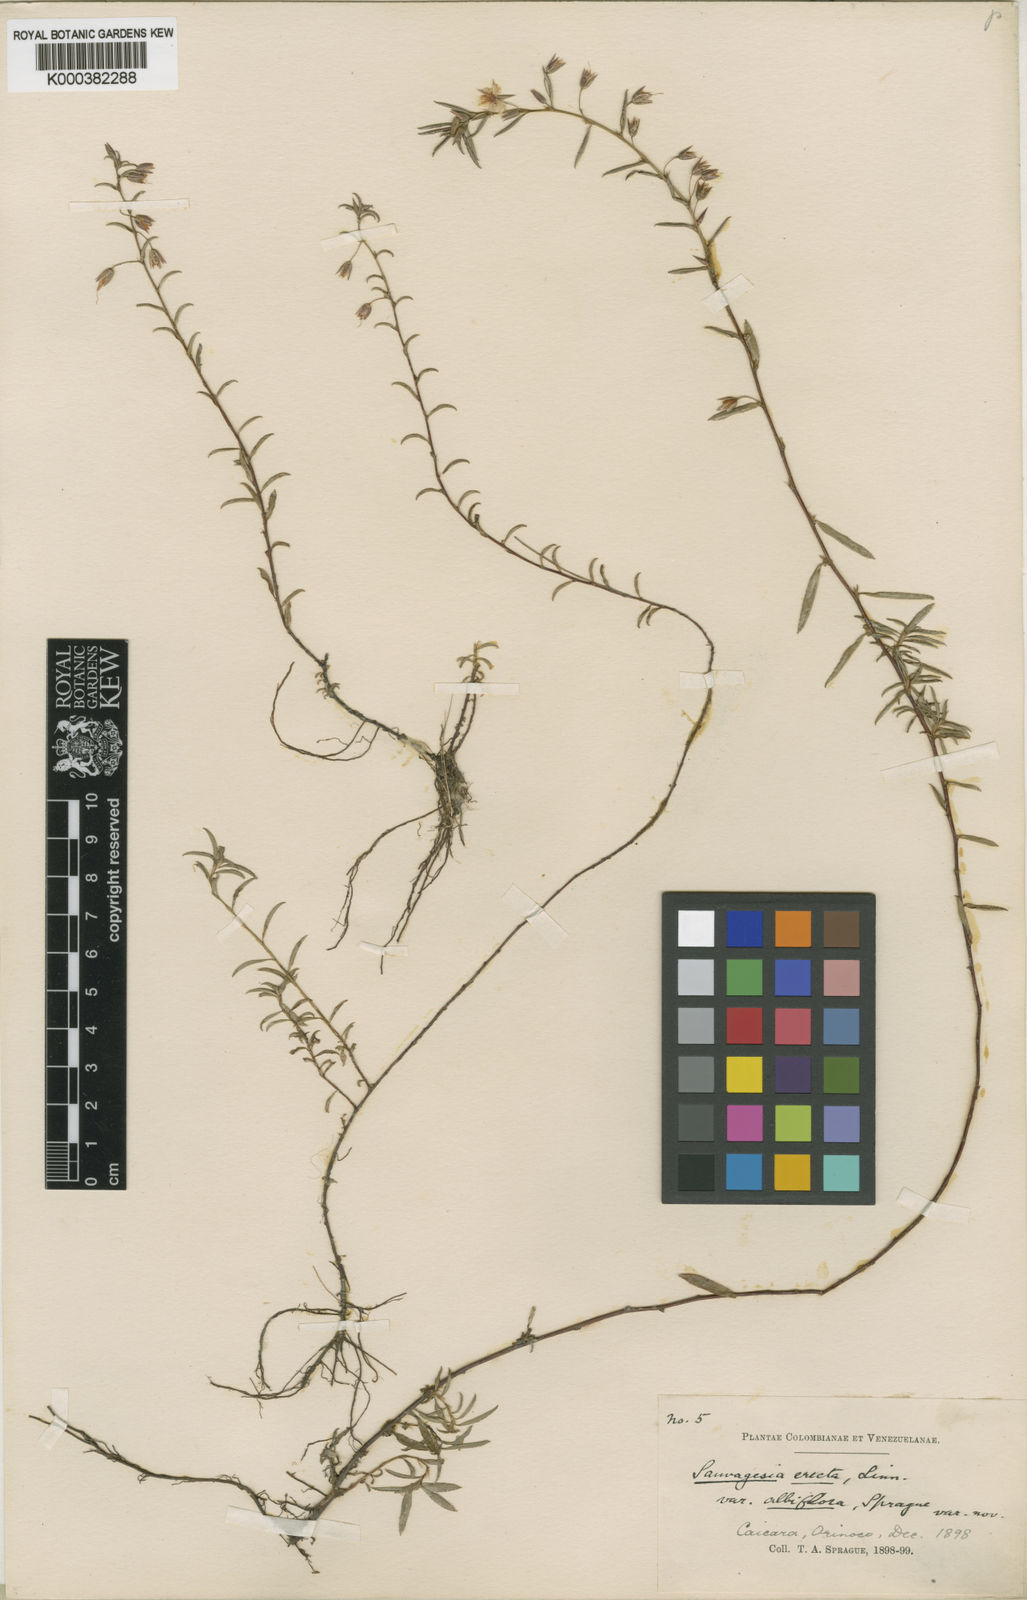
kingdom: Plantae
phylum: Tracheophyta
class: Magnoliopsida
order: Malpighiales
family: Ochnaceae
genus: Sauvagesia
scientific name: Sauvagesia erecta
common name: Creole tea
